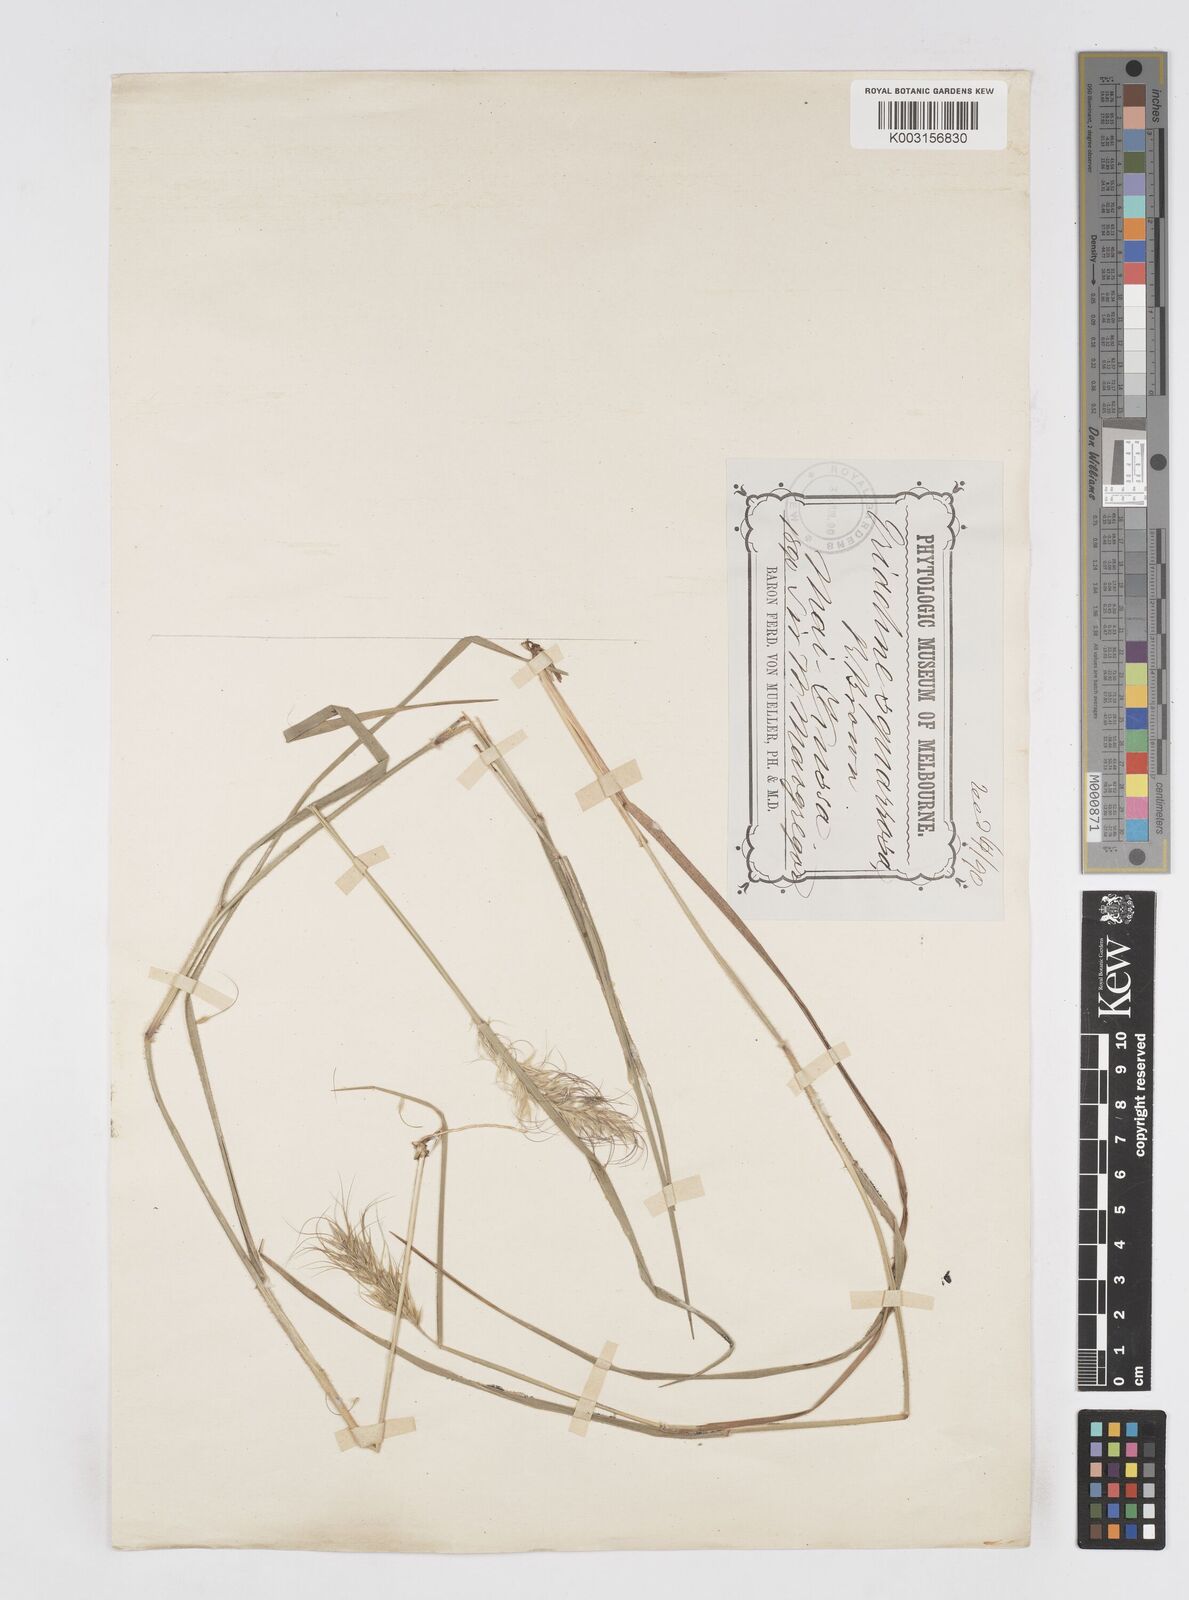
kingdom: Plantae
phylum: Tracheophyta
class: Liliopsida
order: Poales
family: Poaceae
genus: Eriachne
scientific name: Eriachne squarrosa
